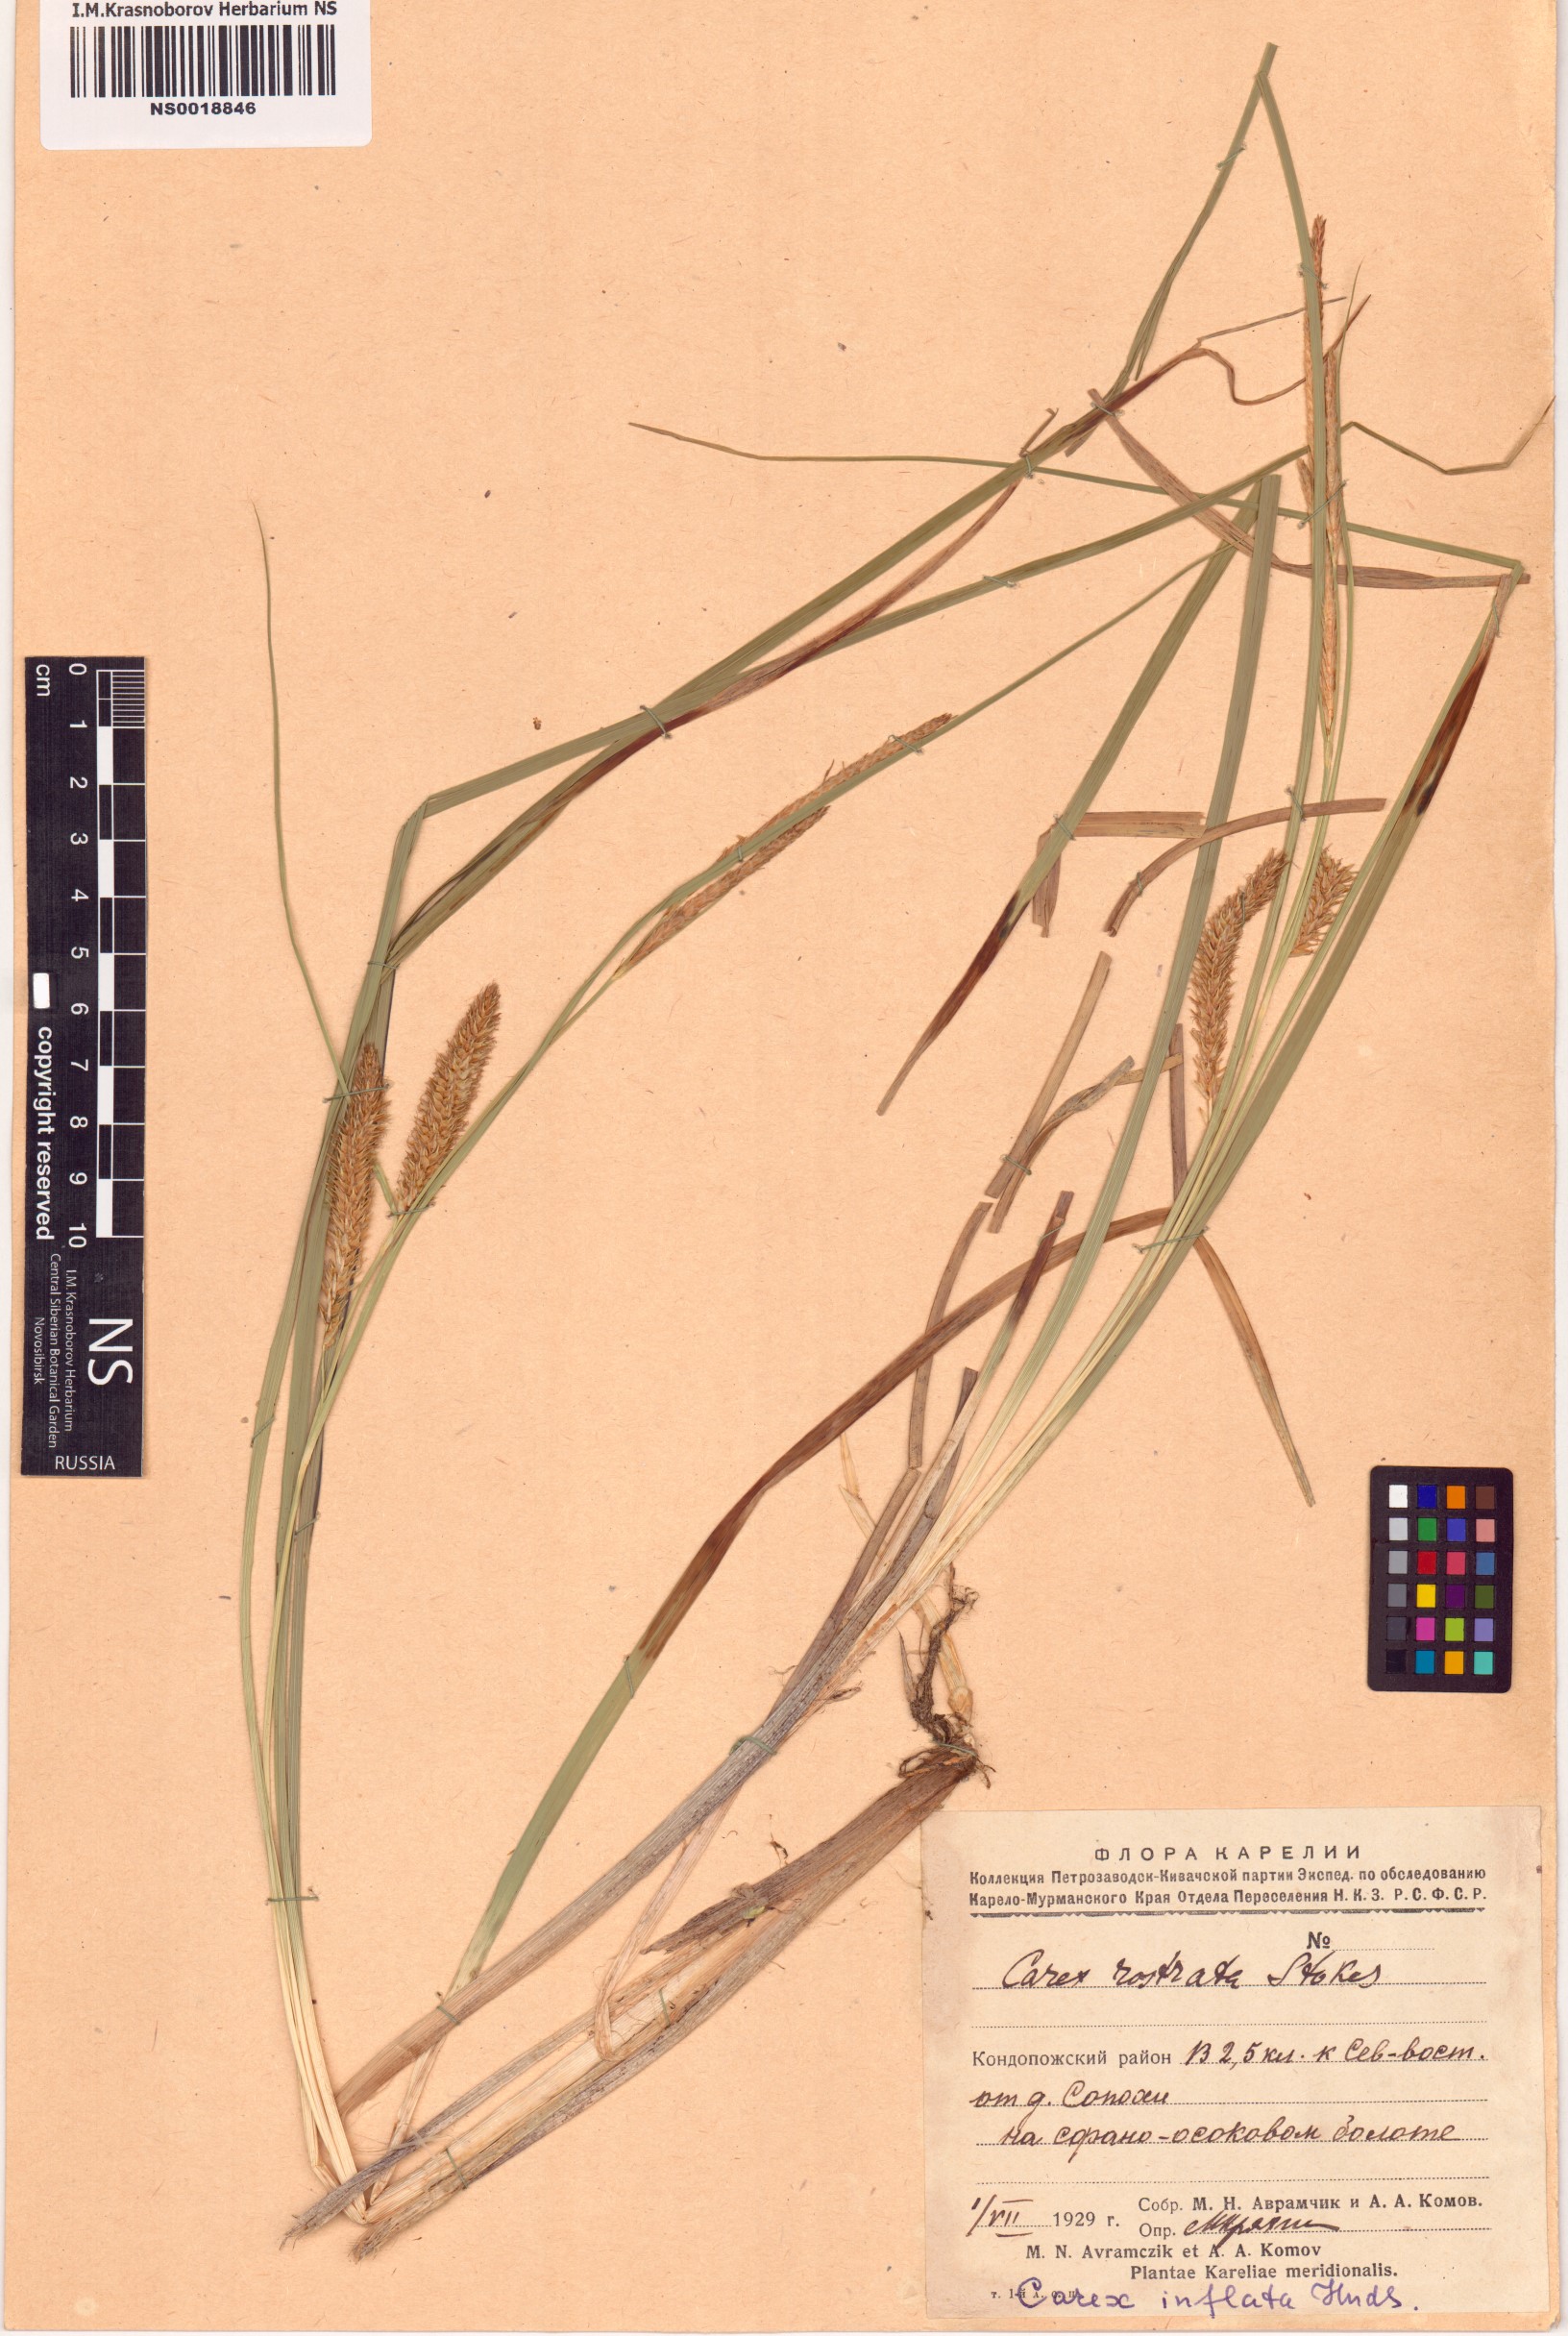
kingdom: Plantae
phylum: Tracheophyta
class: Liliopsida
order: Poales
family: Cyperaceae
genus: Carex
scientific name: Carex rostrata
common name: Bottle sedge
